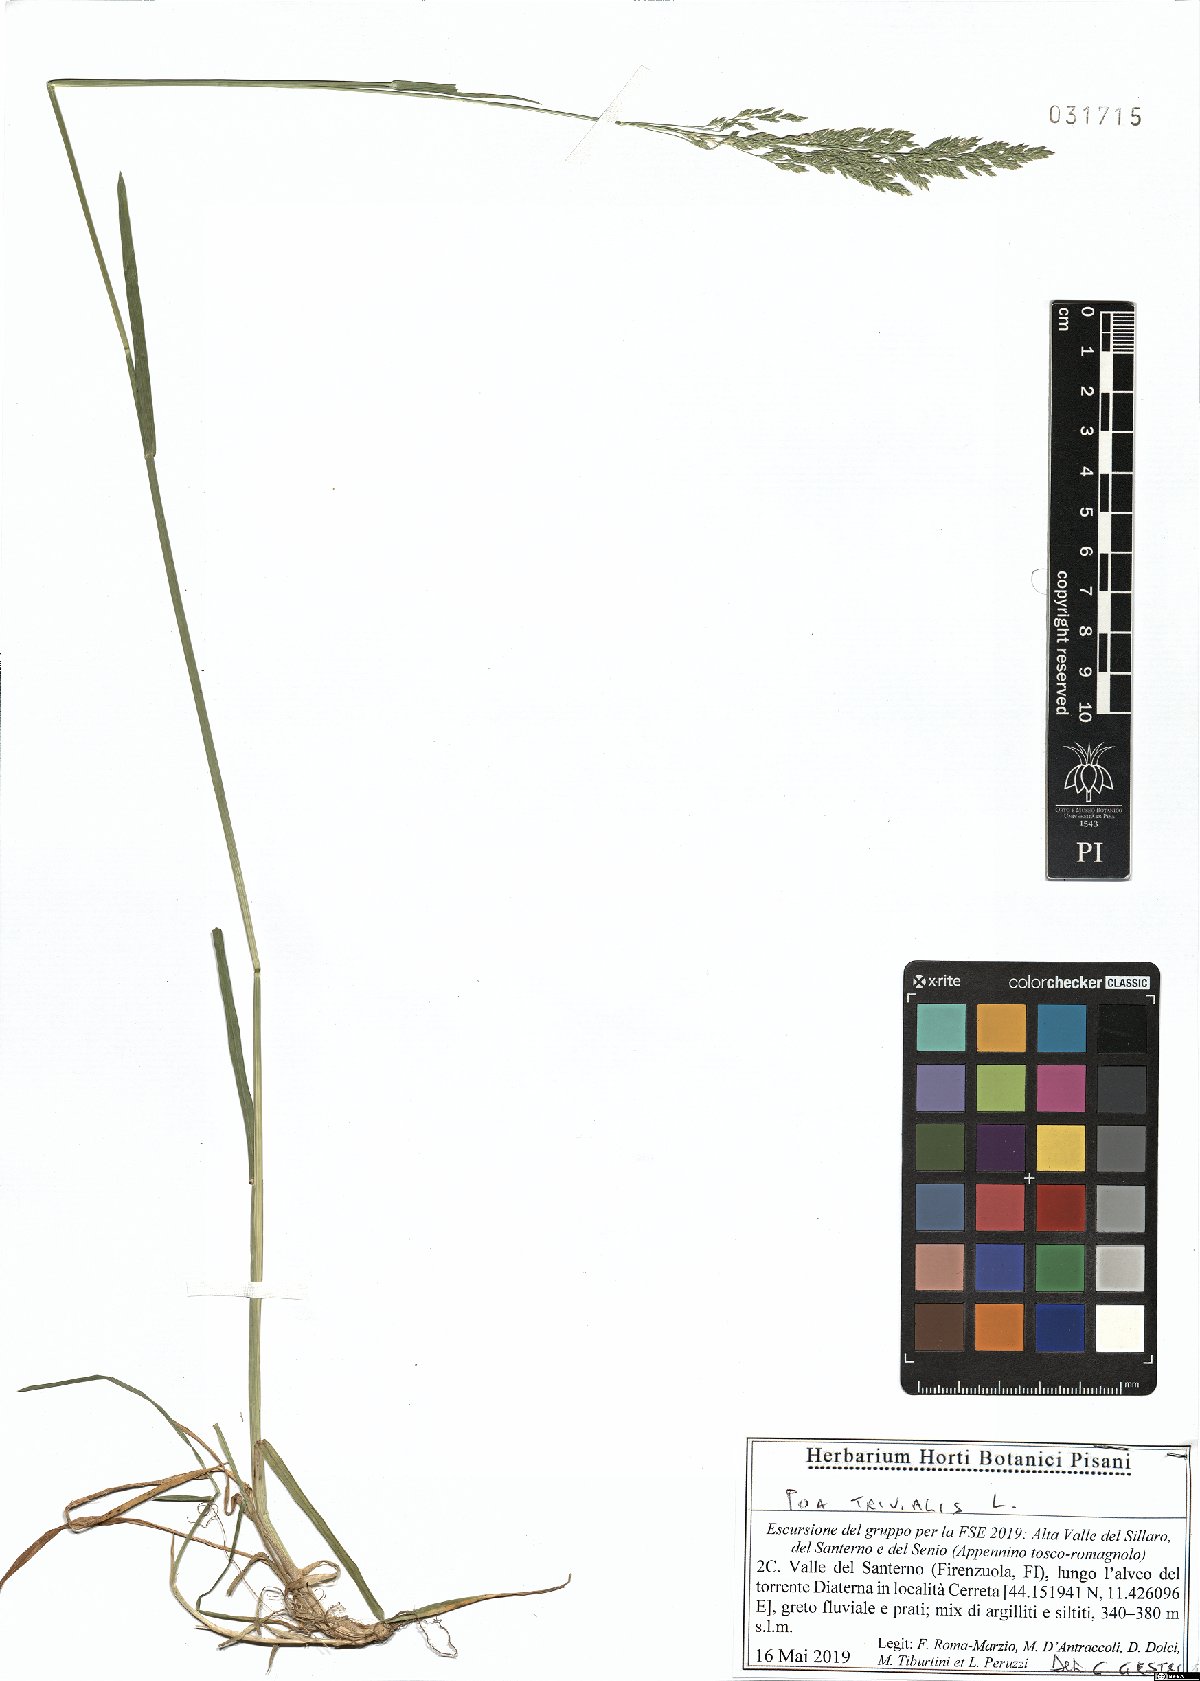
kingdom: Plantae
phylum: Tracheophyta
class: Liliopsida
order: Poales
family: Poaceae
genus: Poa
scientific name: Poa trivialis
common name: Rough bluegrass
